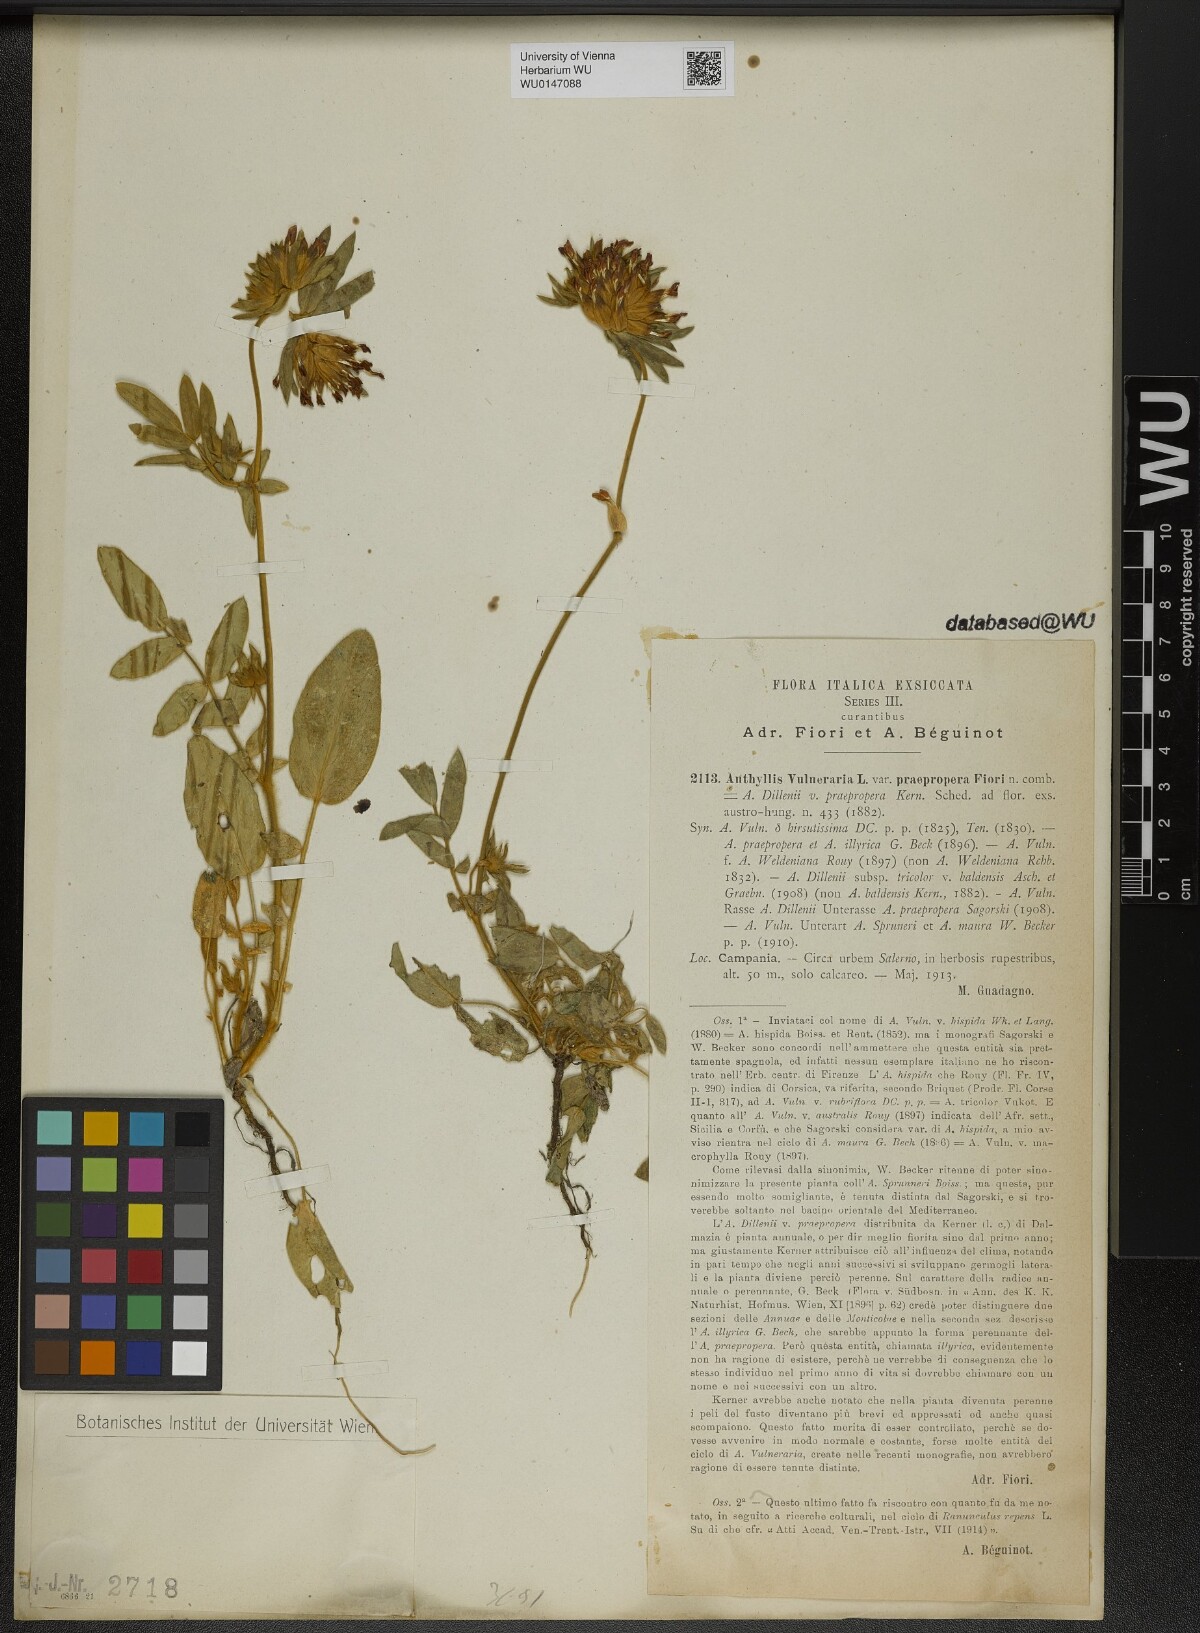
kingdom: Plantae
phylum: Tracheophyta
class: Magnoliopsida
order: Fabales
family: Fabaceae
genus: Anthyllis
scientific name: Anthyllis vulneraria
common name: Kidney vetch
